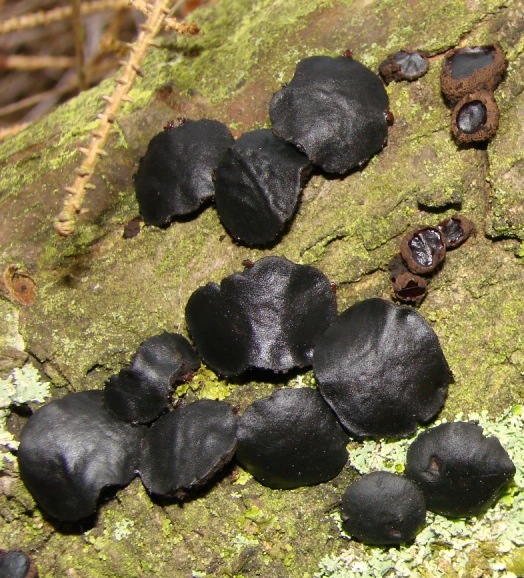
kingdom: Fungi
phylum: Ascomycota
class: Leotiomycetes
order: Phacidiales
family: Phacidiaceae
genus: Bulgaria
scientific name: Bulgaria inquinans
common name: afsmittende topsvamp
